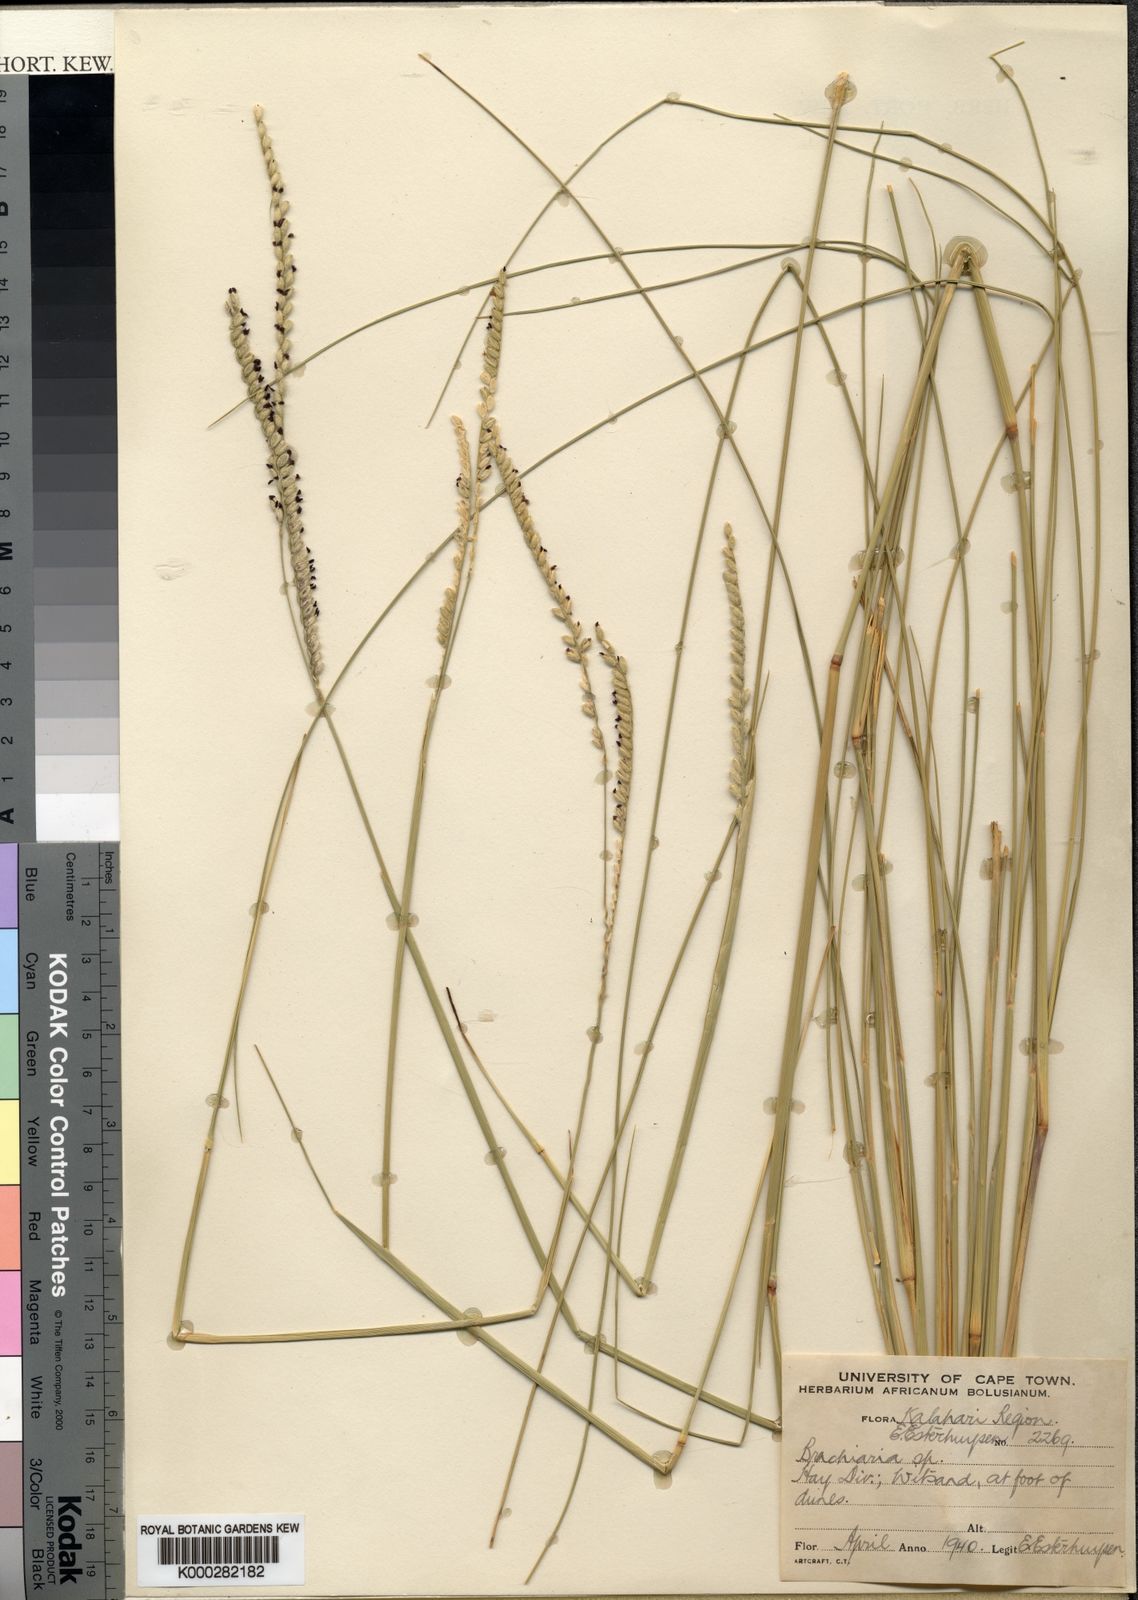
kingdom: Plantae
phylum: Tracheophyta
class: Liliopsida
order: Poales
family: Poaceae
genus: Urochloa
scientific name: Urochloa dura
